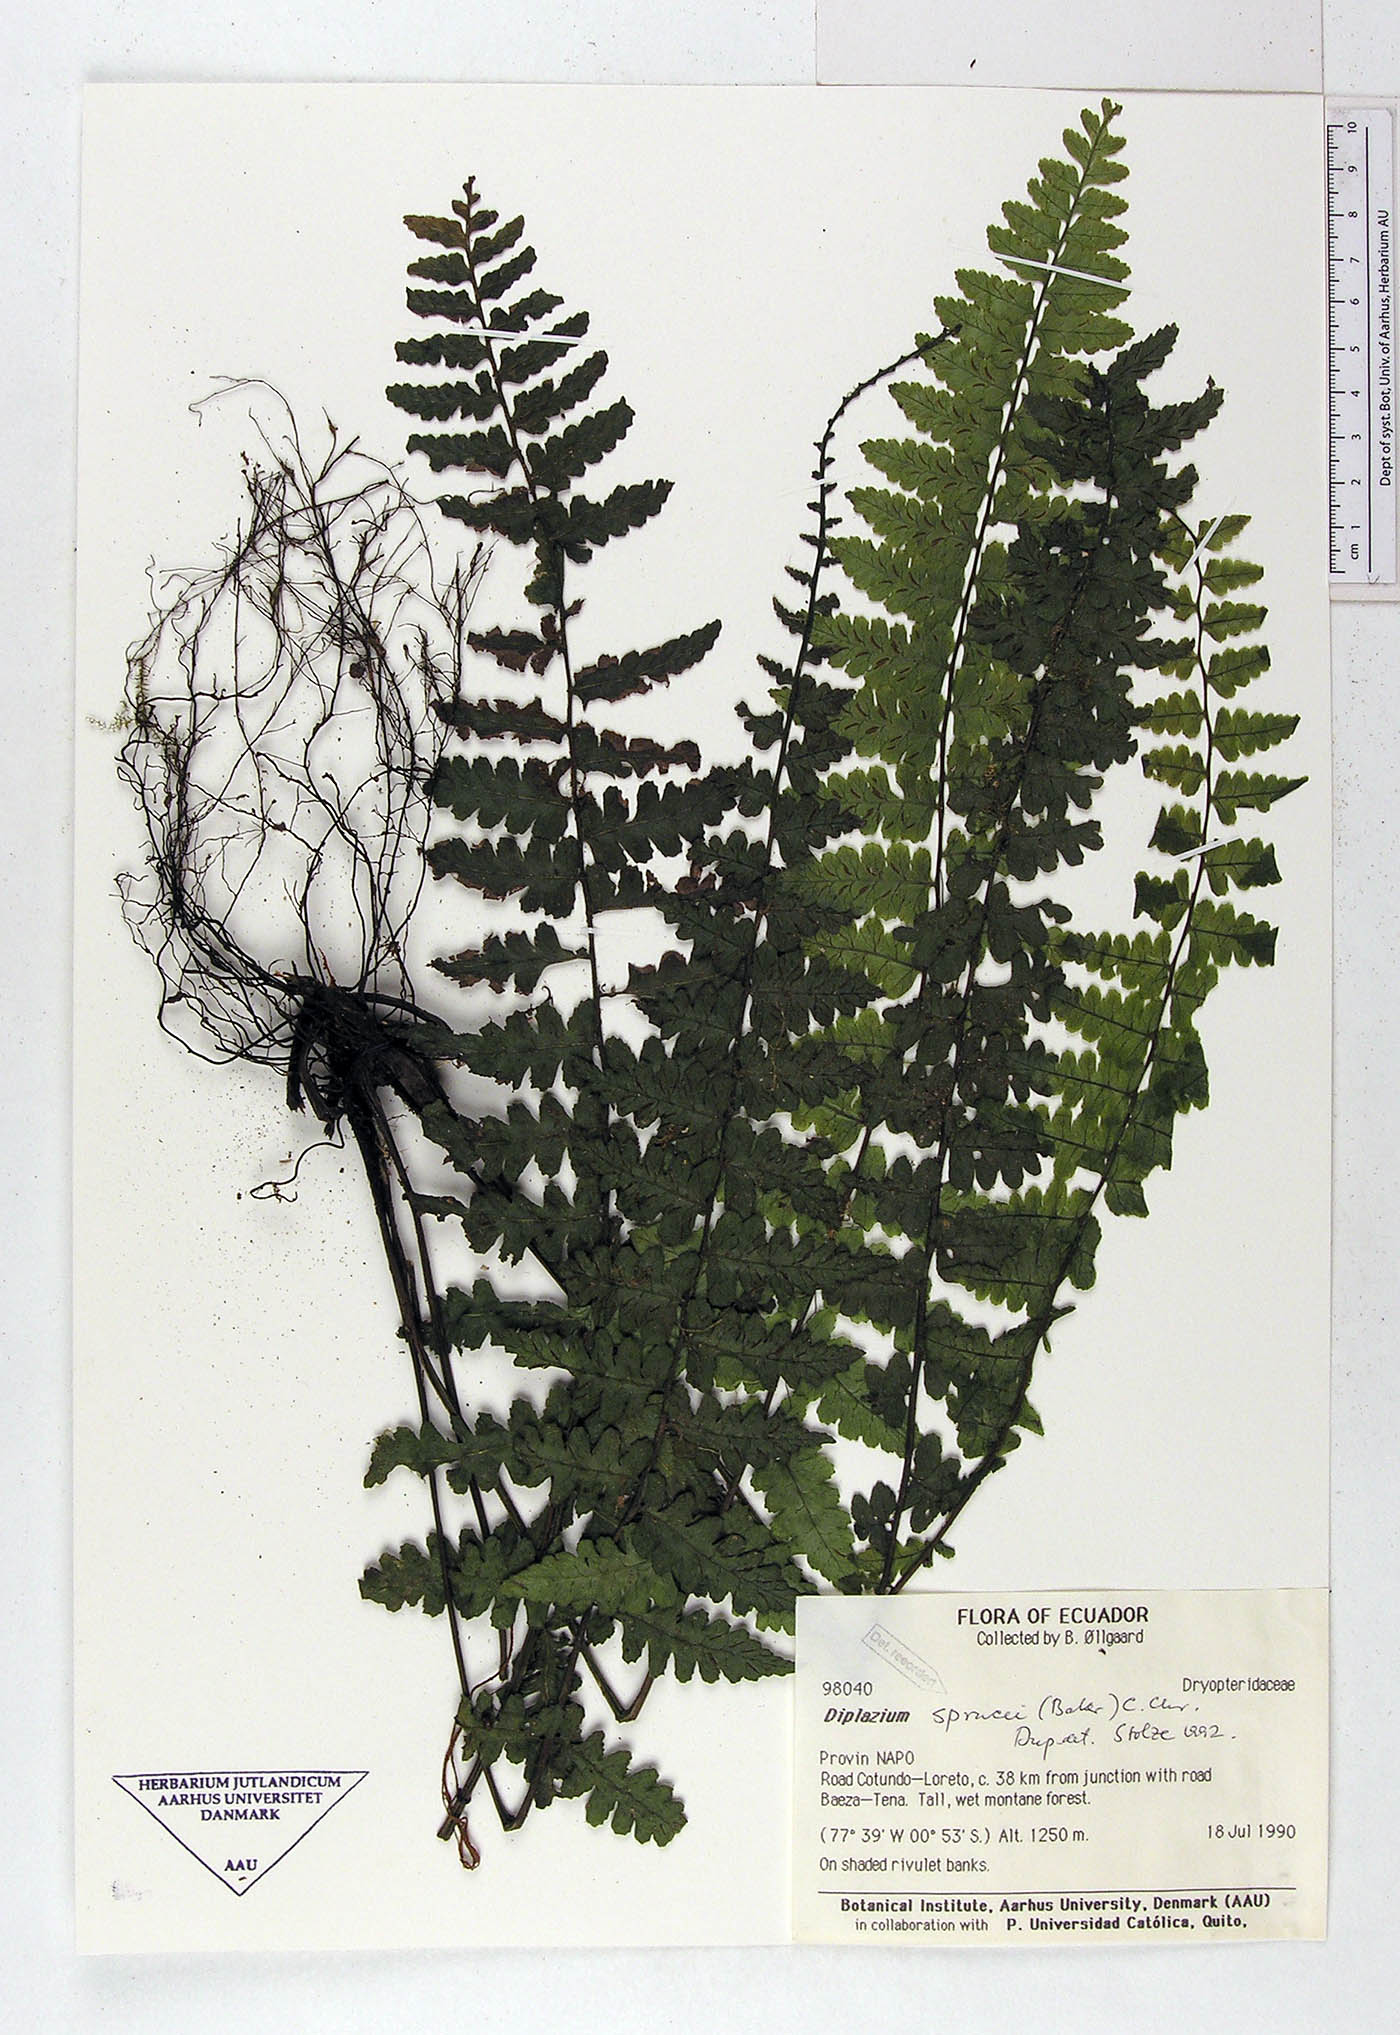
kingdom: Plantae
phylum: Tracheophyta
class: Polypodiopsida
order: Polypodiales
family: Athyriaceae
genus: Diplazium
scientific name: Diplazium sprucei
